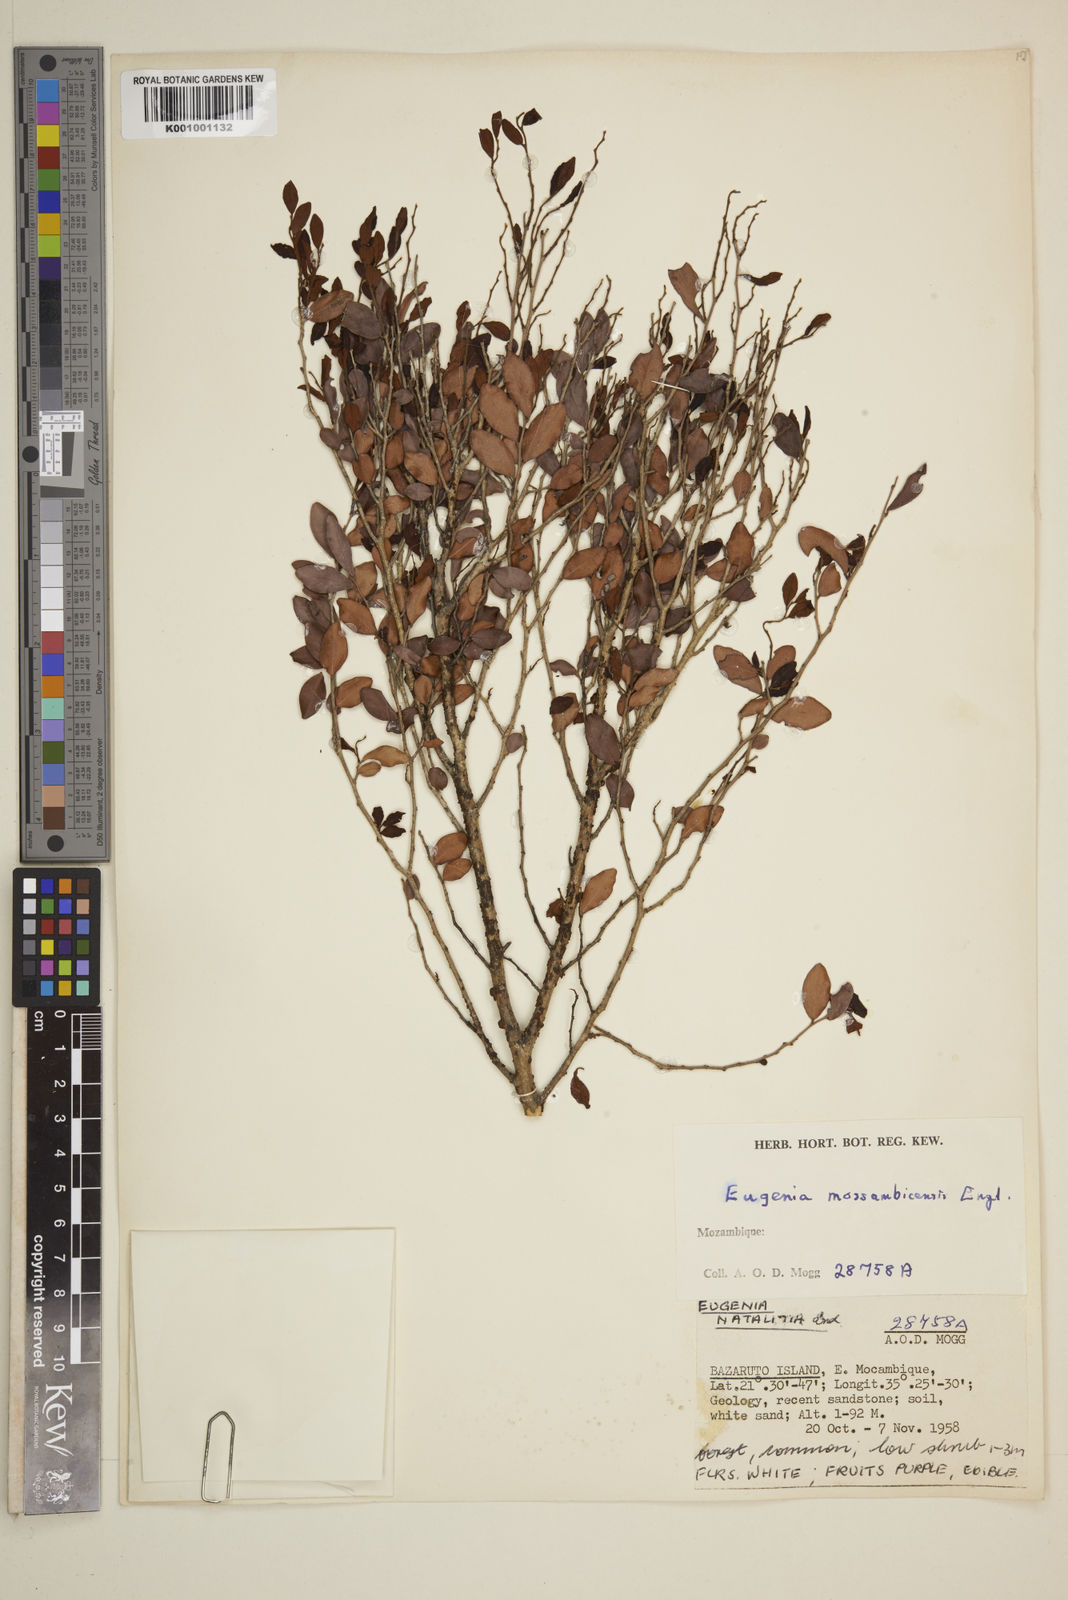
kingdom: Plantae
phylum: Tracheophyta
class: Magnoliopsida
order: Myrtales
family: Myrtaceae
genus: Eugenia
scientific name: Eugenia capensis
